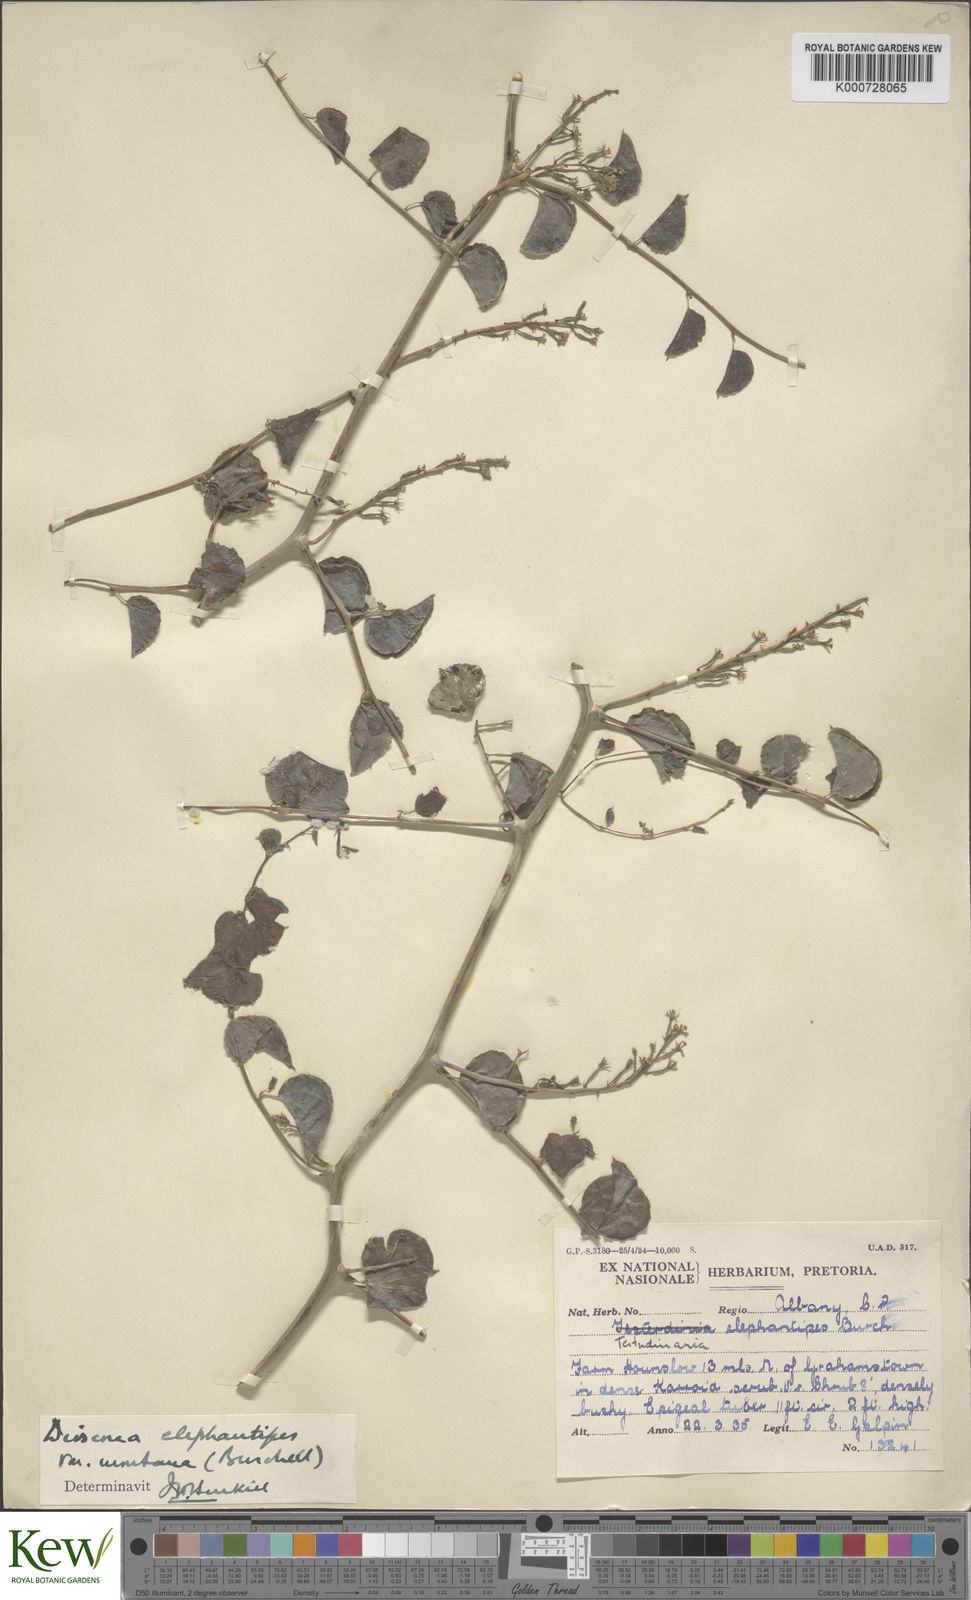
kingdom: Plantae
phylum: Tracheophyta
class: Liliopsida
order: Dioscoreales
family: Dioscoreaceae
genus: Dioscorea
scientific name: Dioscorea
